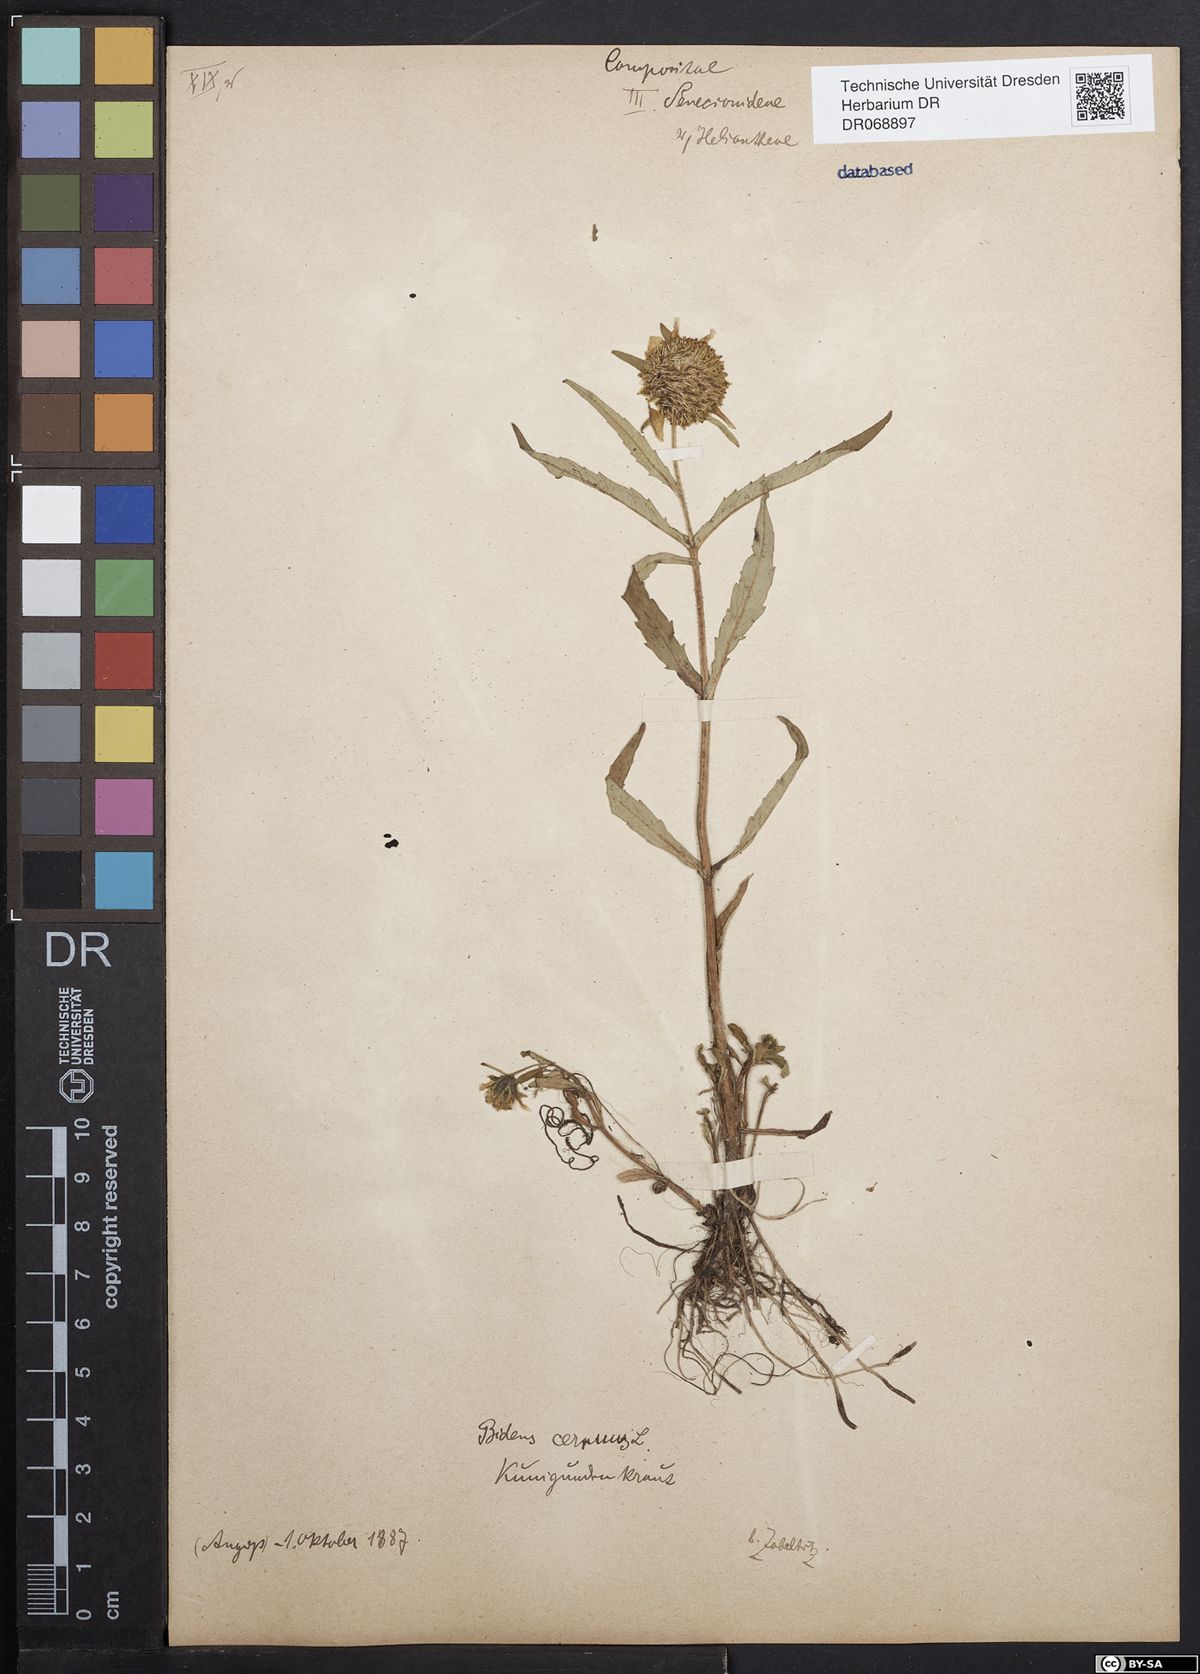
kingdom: Plantae
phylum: Tracheophyta
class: Magnoliopsida
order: Asterales
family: Asteraceae
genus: Bidens
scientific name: Bidens cernua
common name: Nodding bur-marigold
